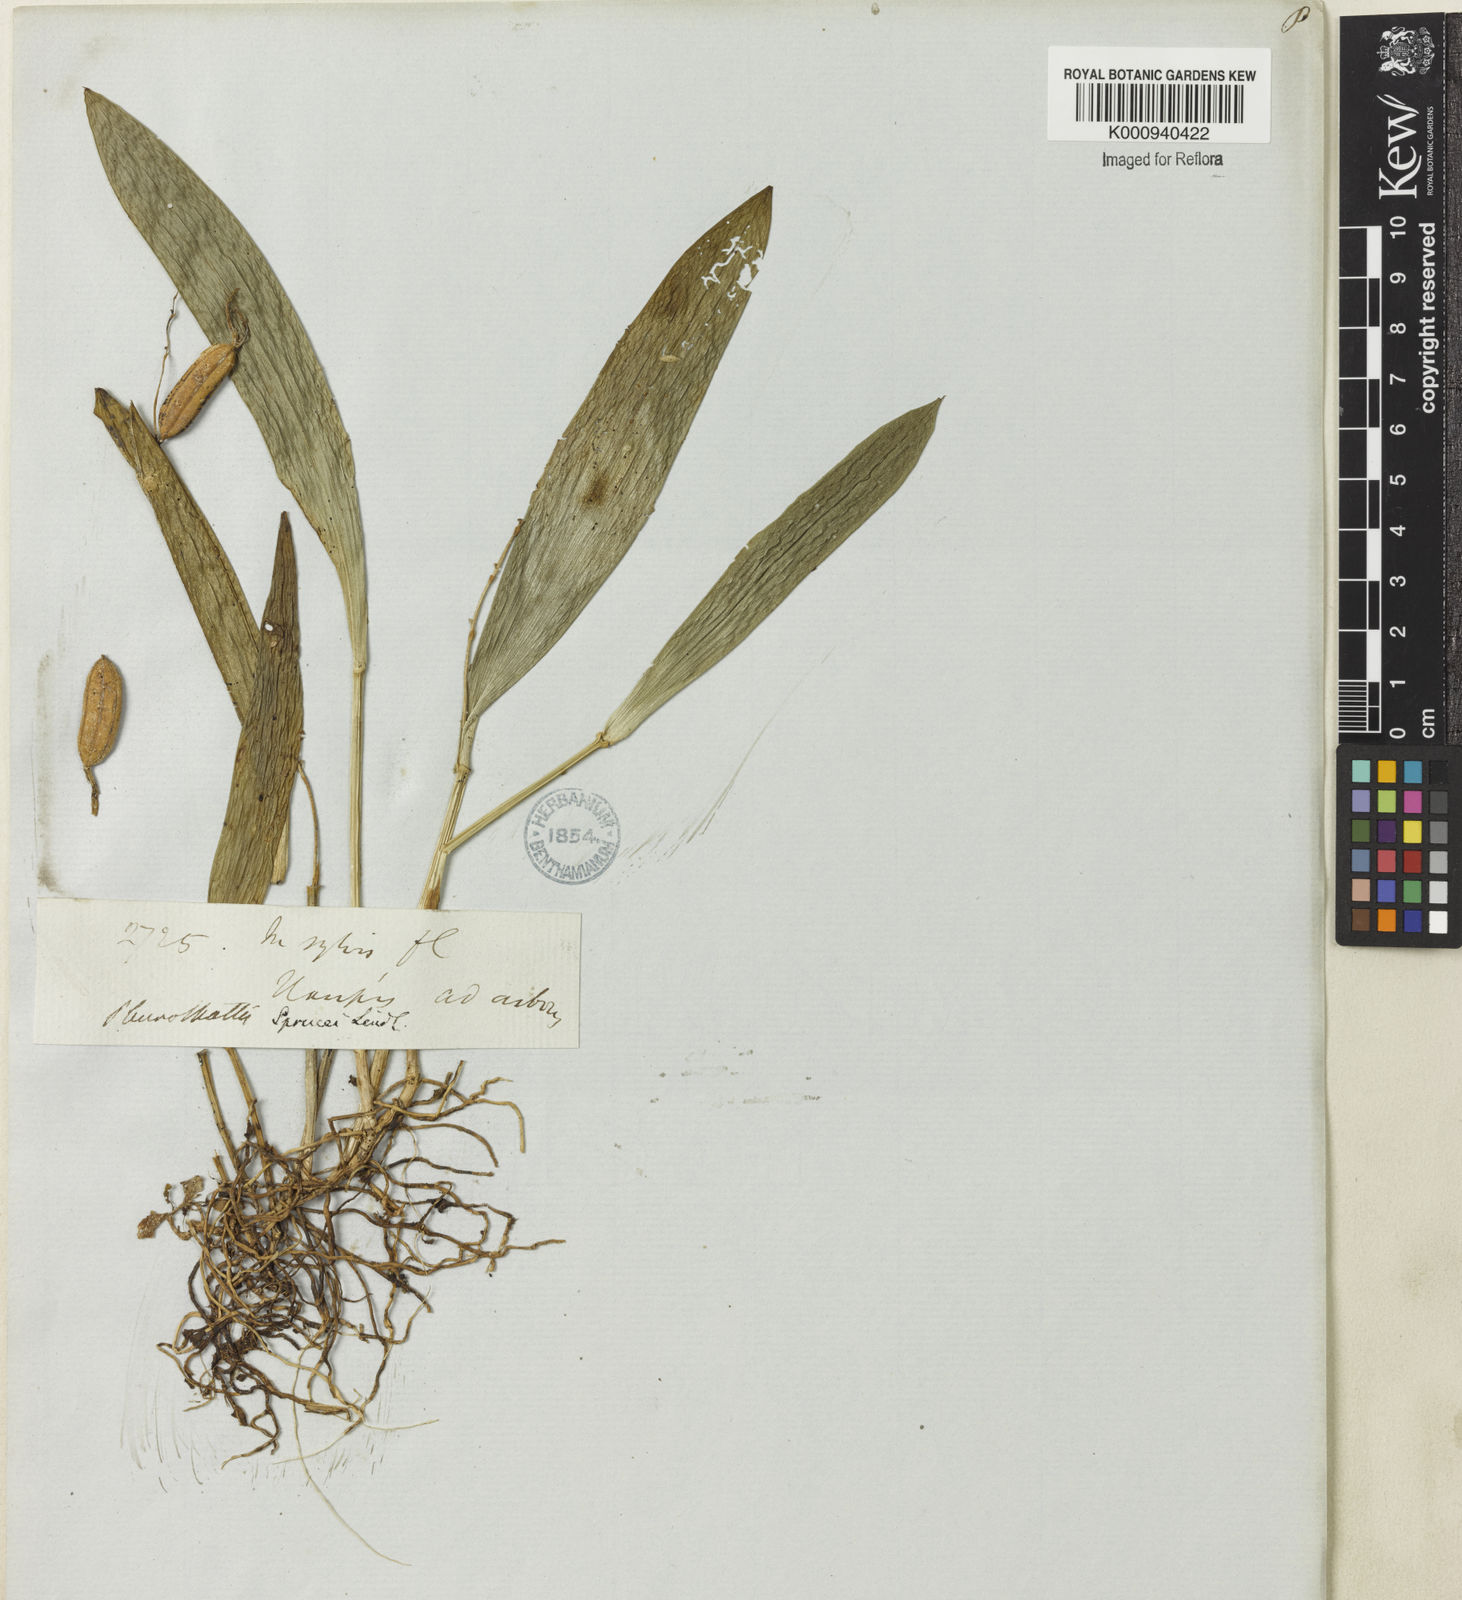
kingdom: Plantae
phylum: Tracheophyta
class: Liliopsida
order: Asparagales
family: Orchidaceae
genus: Acianthera
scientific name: Acianthera
